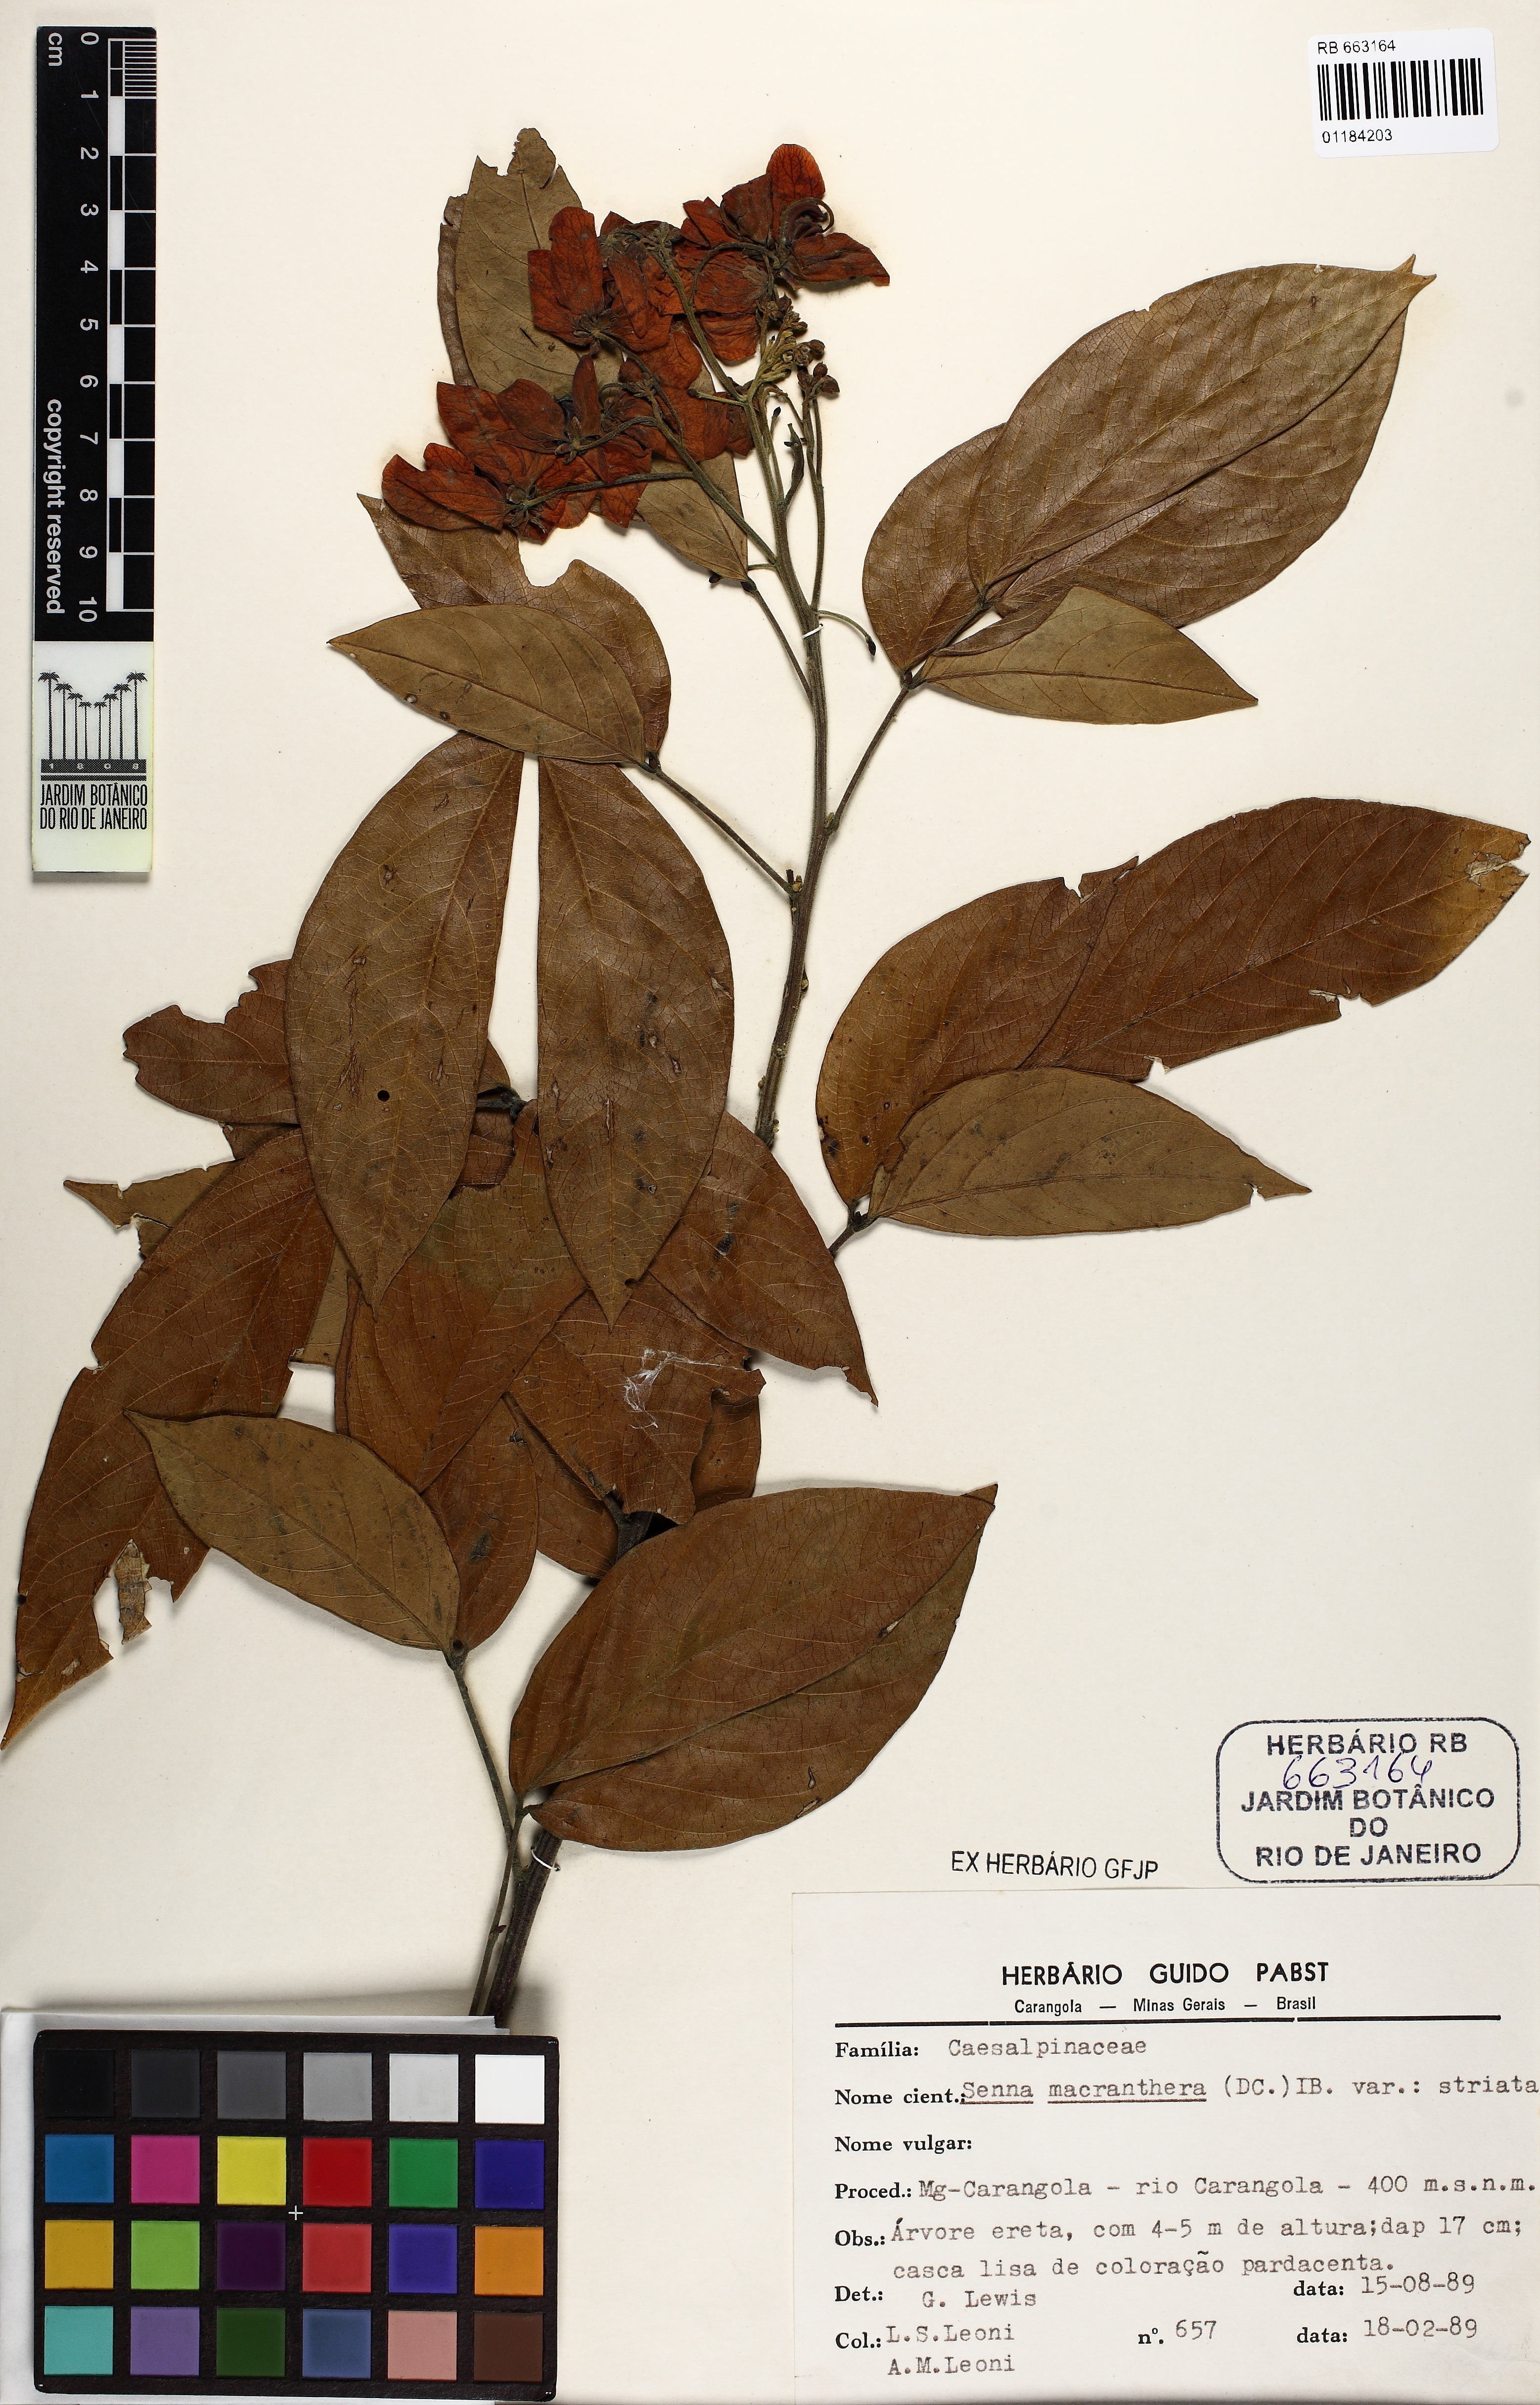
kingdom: Plantae
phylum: Tracheophyta
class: Magnoliopsida
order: Fabales
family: Fabaceae
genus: Senna
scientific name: Senna macranthera
